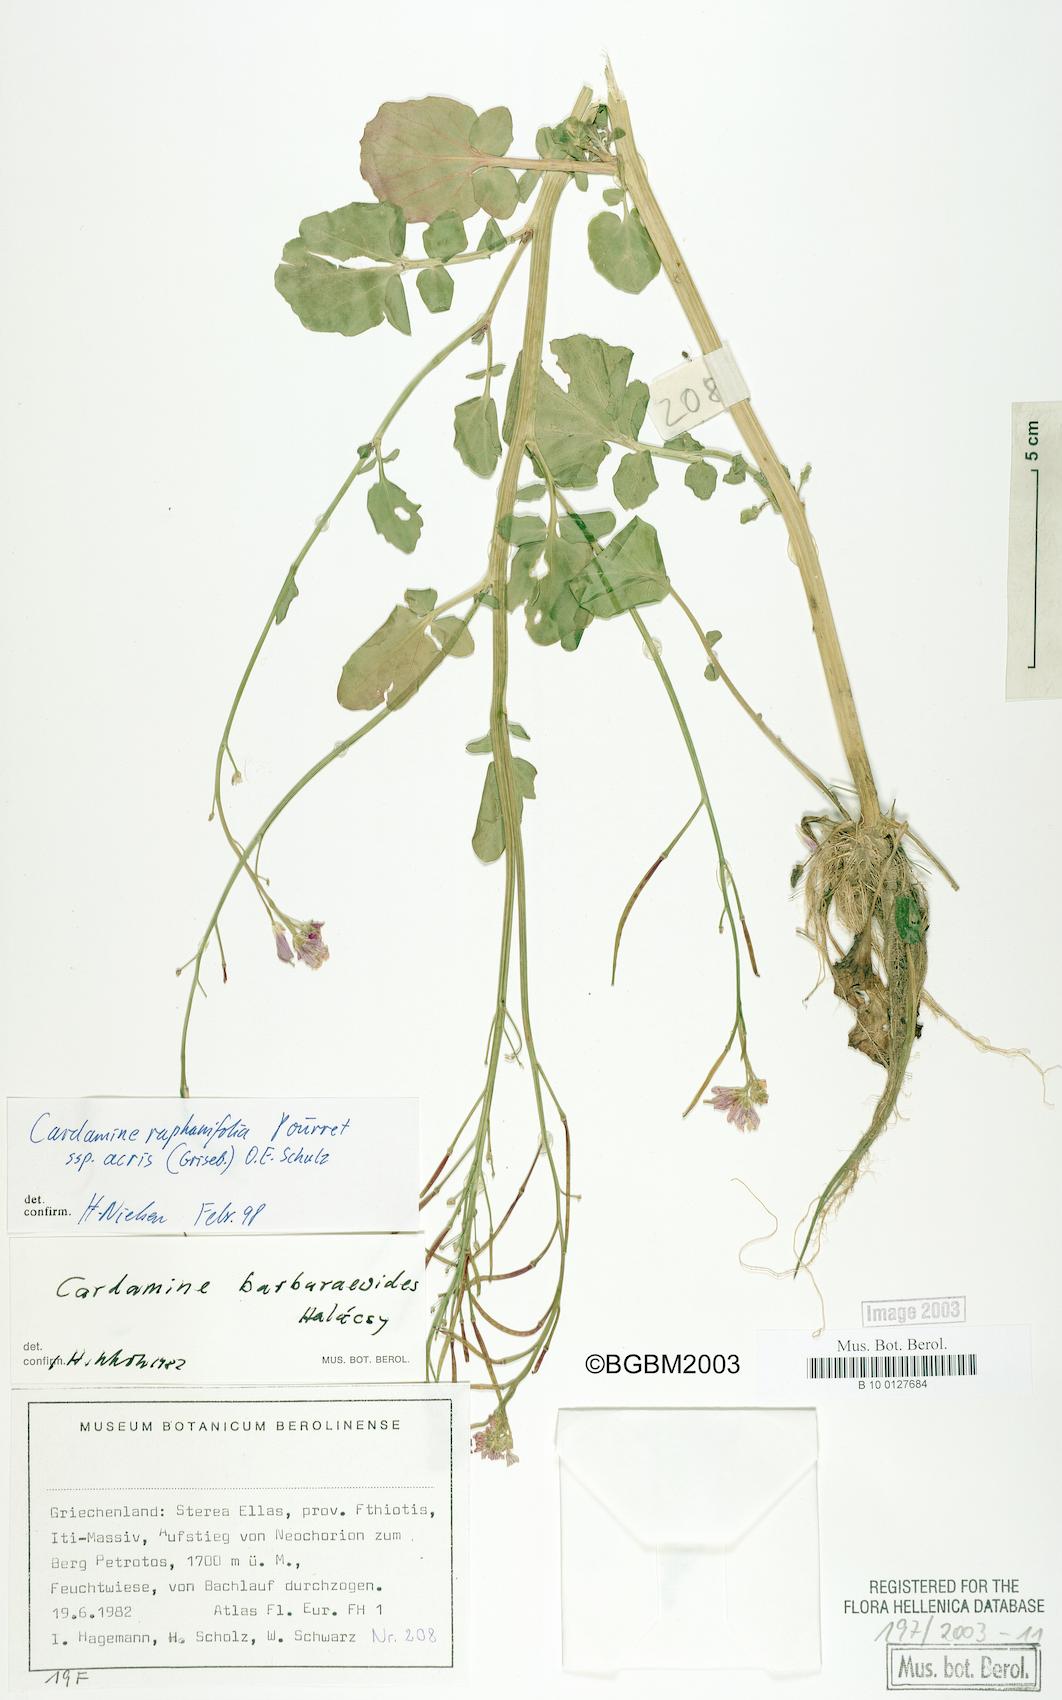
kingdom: Plantae
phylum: Tracheophyta
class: Magnoliopsida
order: Brassicales
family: Brassicaceae
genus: Cardamine
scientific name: Cardamine raphanifolia
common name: Greater cuckooflower
